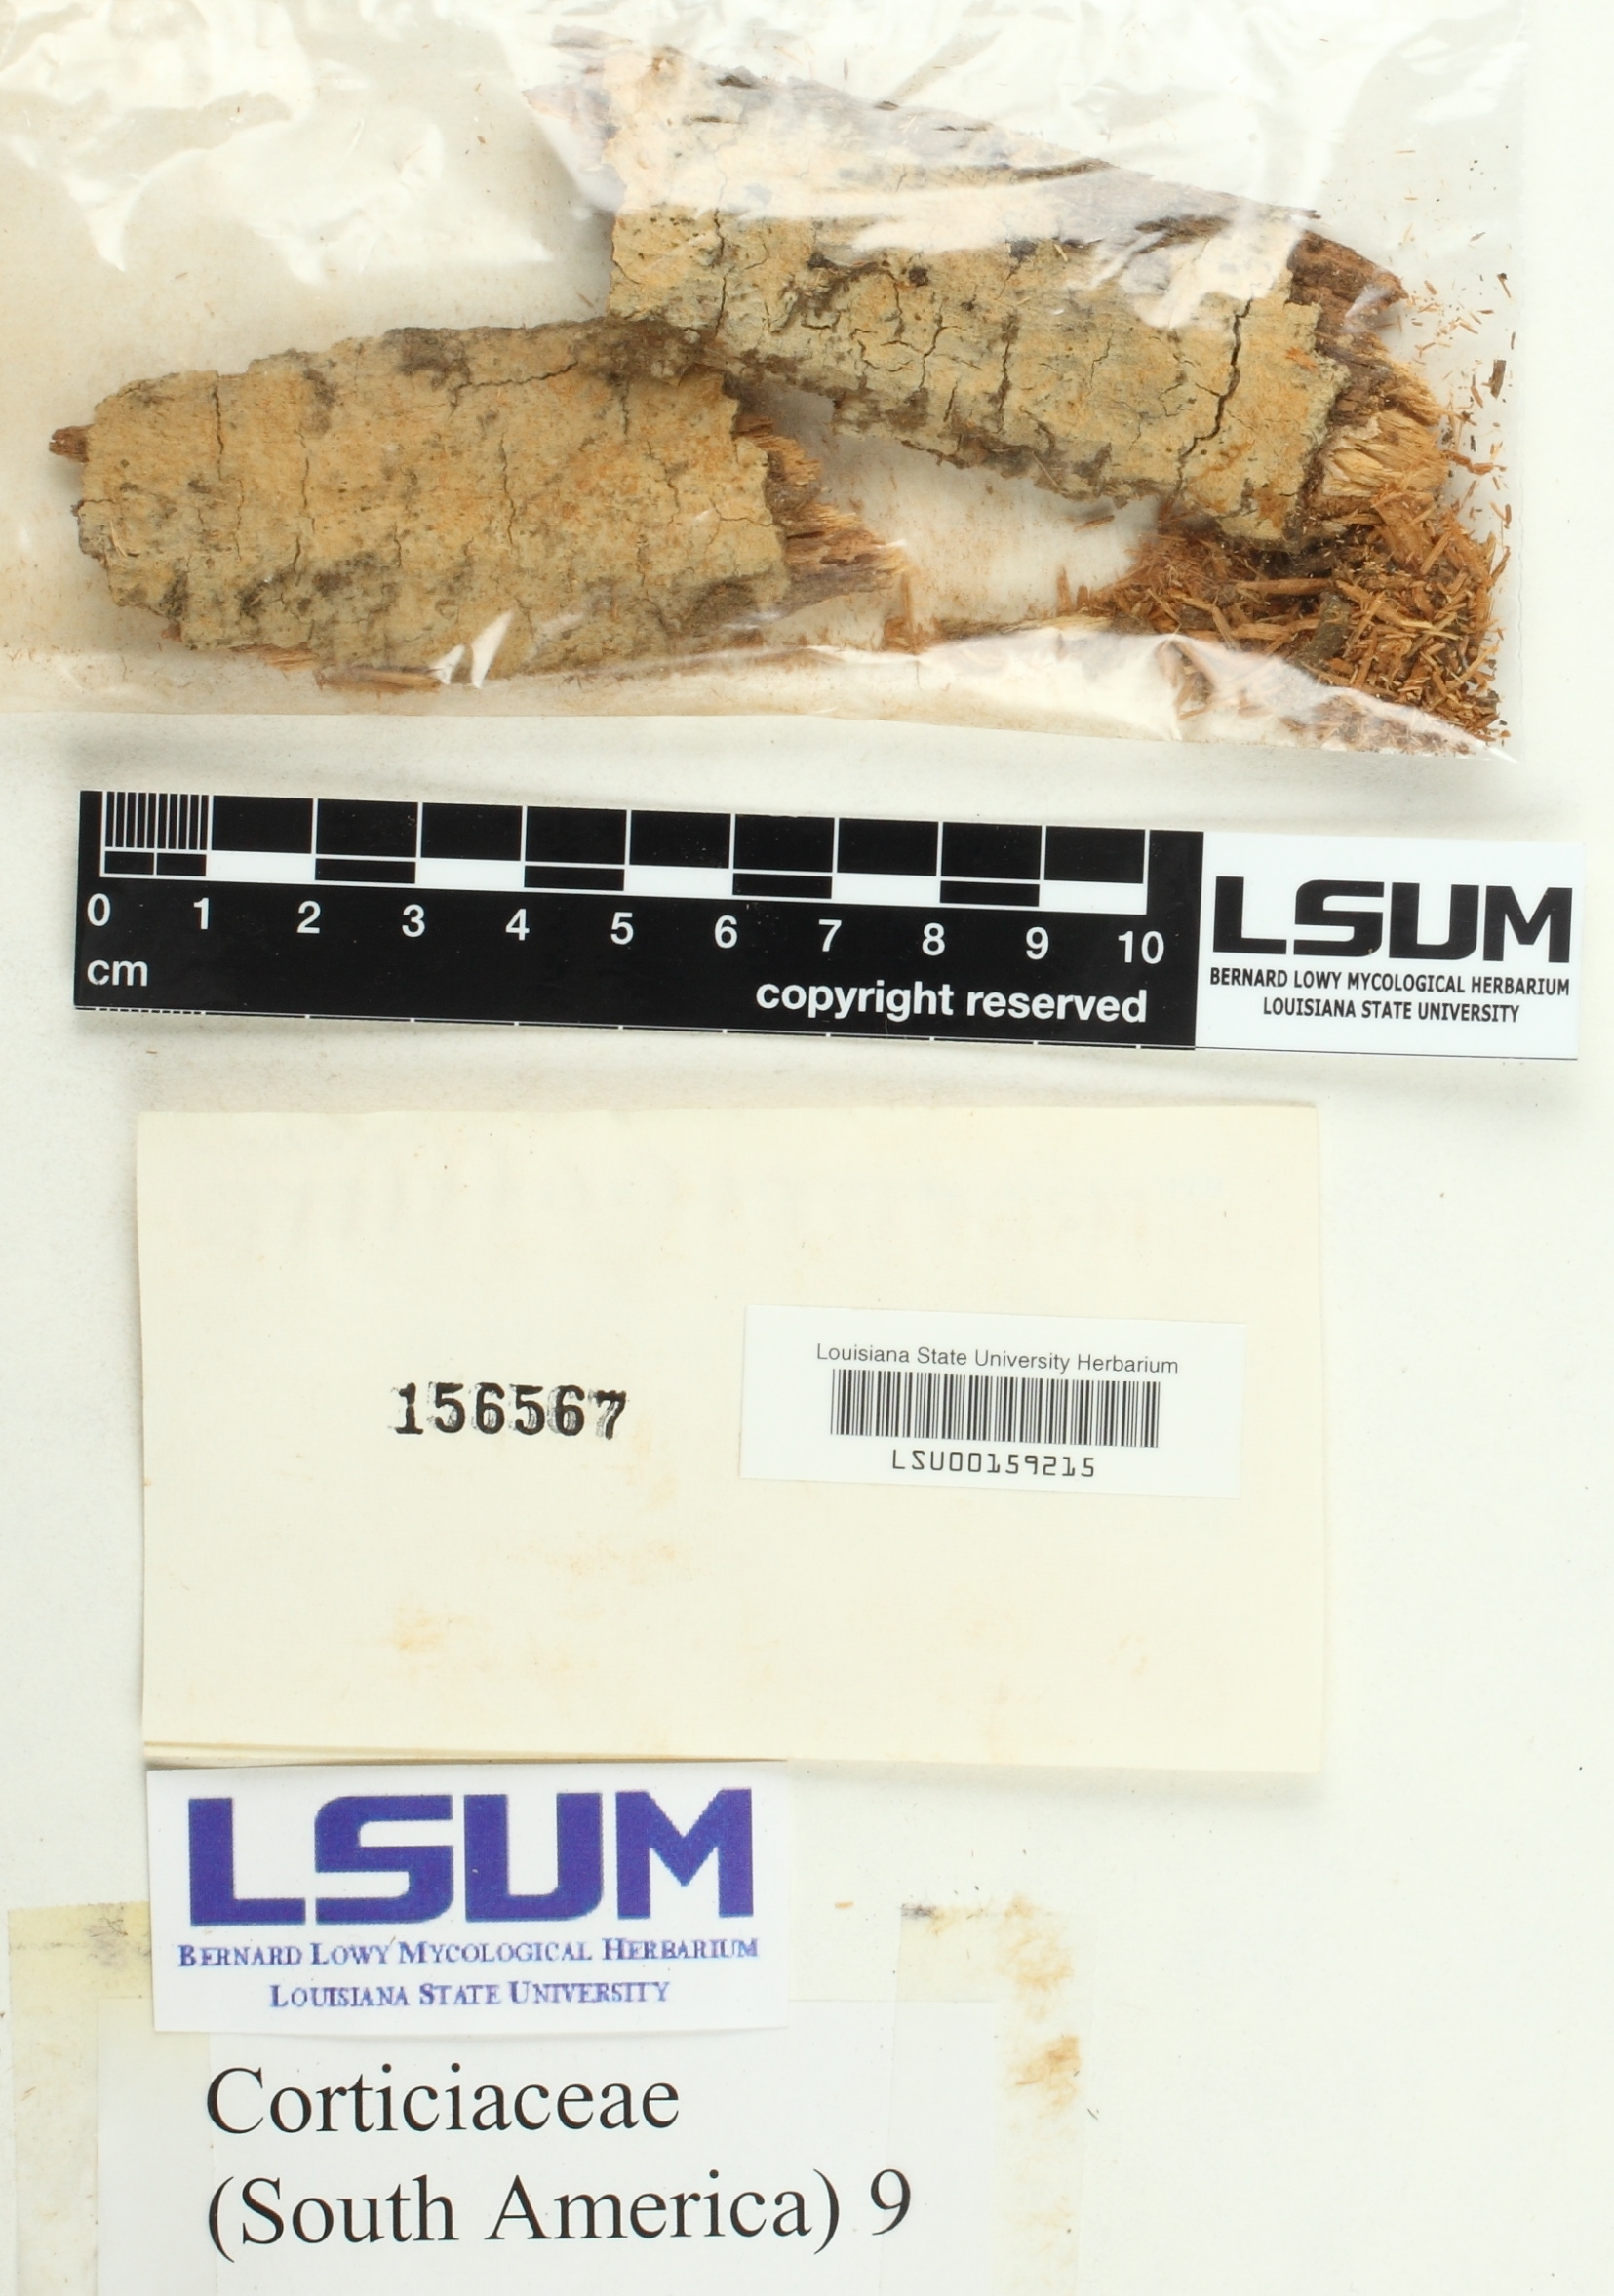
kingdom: Fungi
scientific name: Fungi
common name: Fungi
